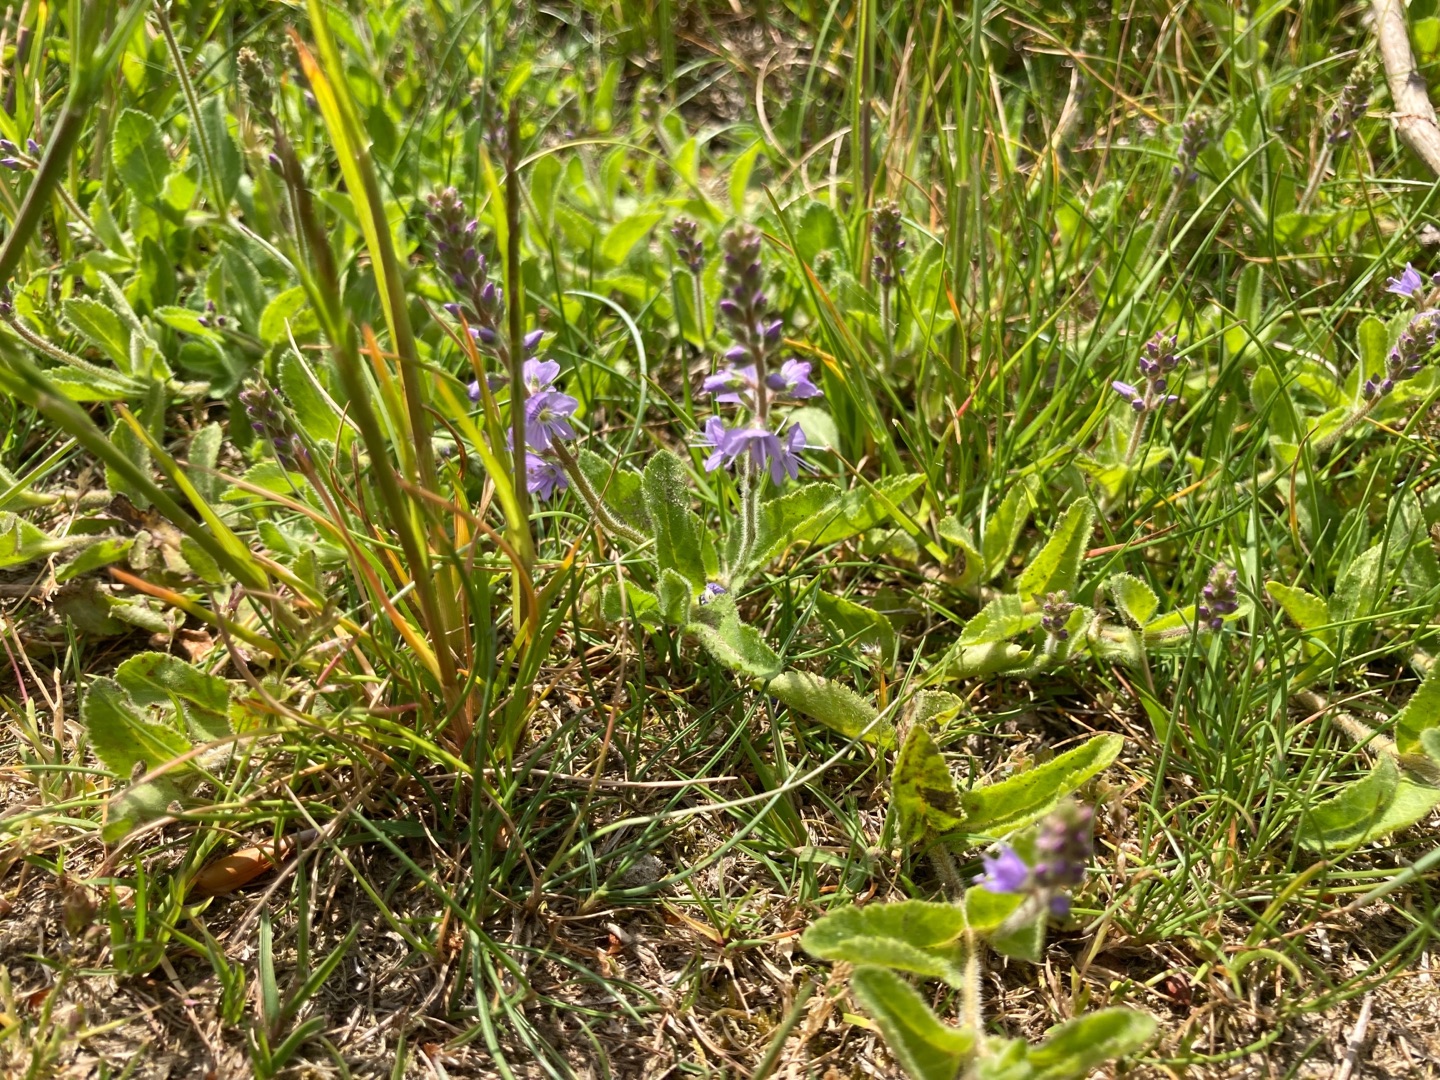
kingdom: Plantae
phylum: Tracheophyta
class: Magnoliopsida
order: Lamiales
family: Plantaginaceae
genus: Veronica
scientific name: Veronica officinalis
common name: Læge-ærenpris
